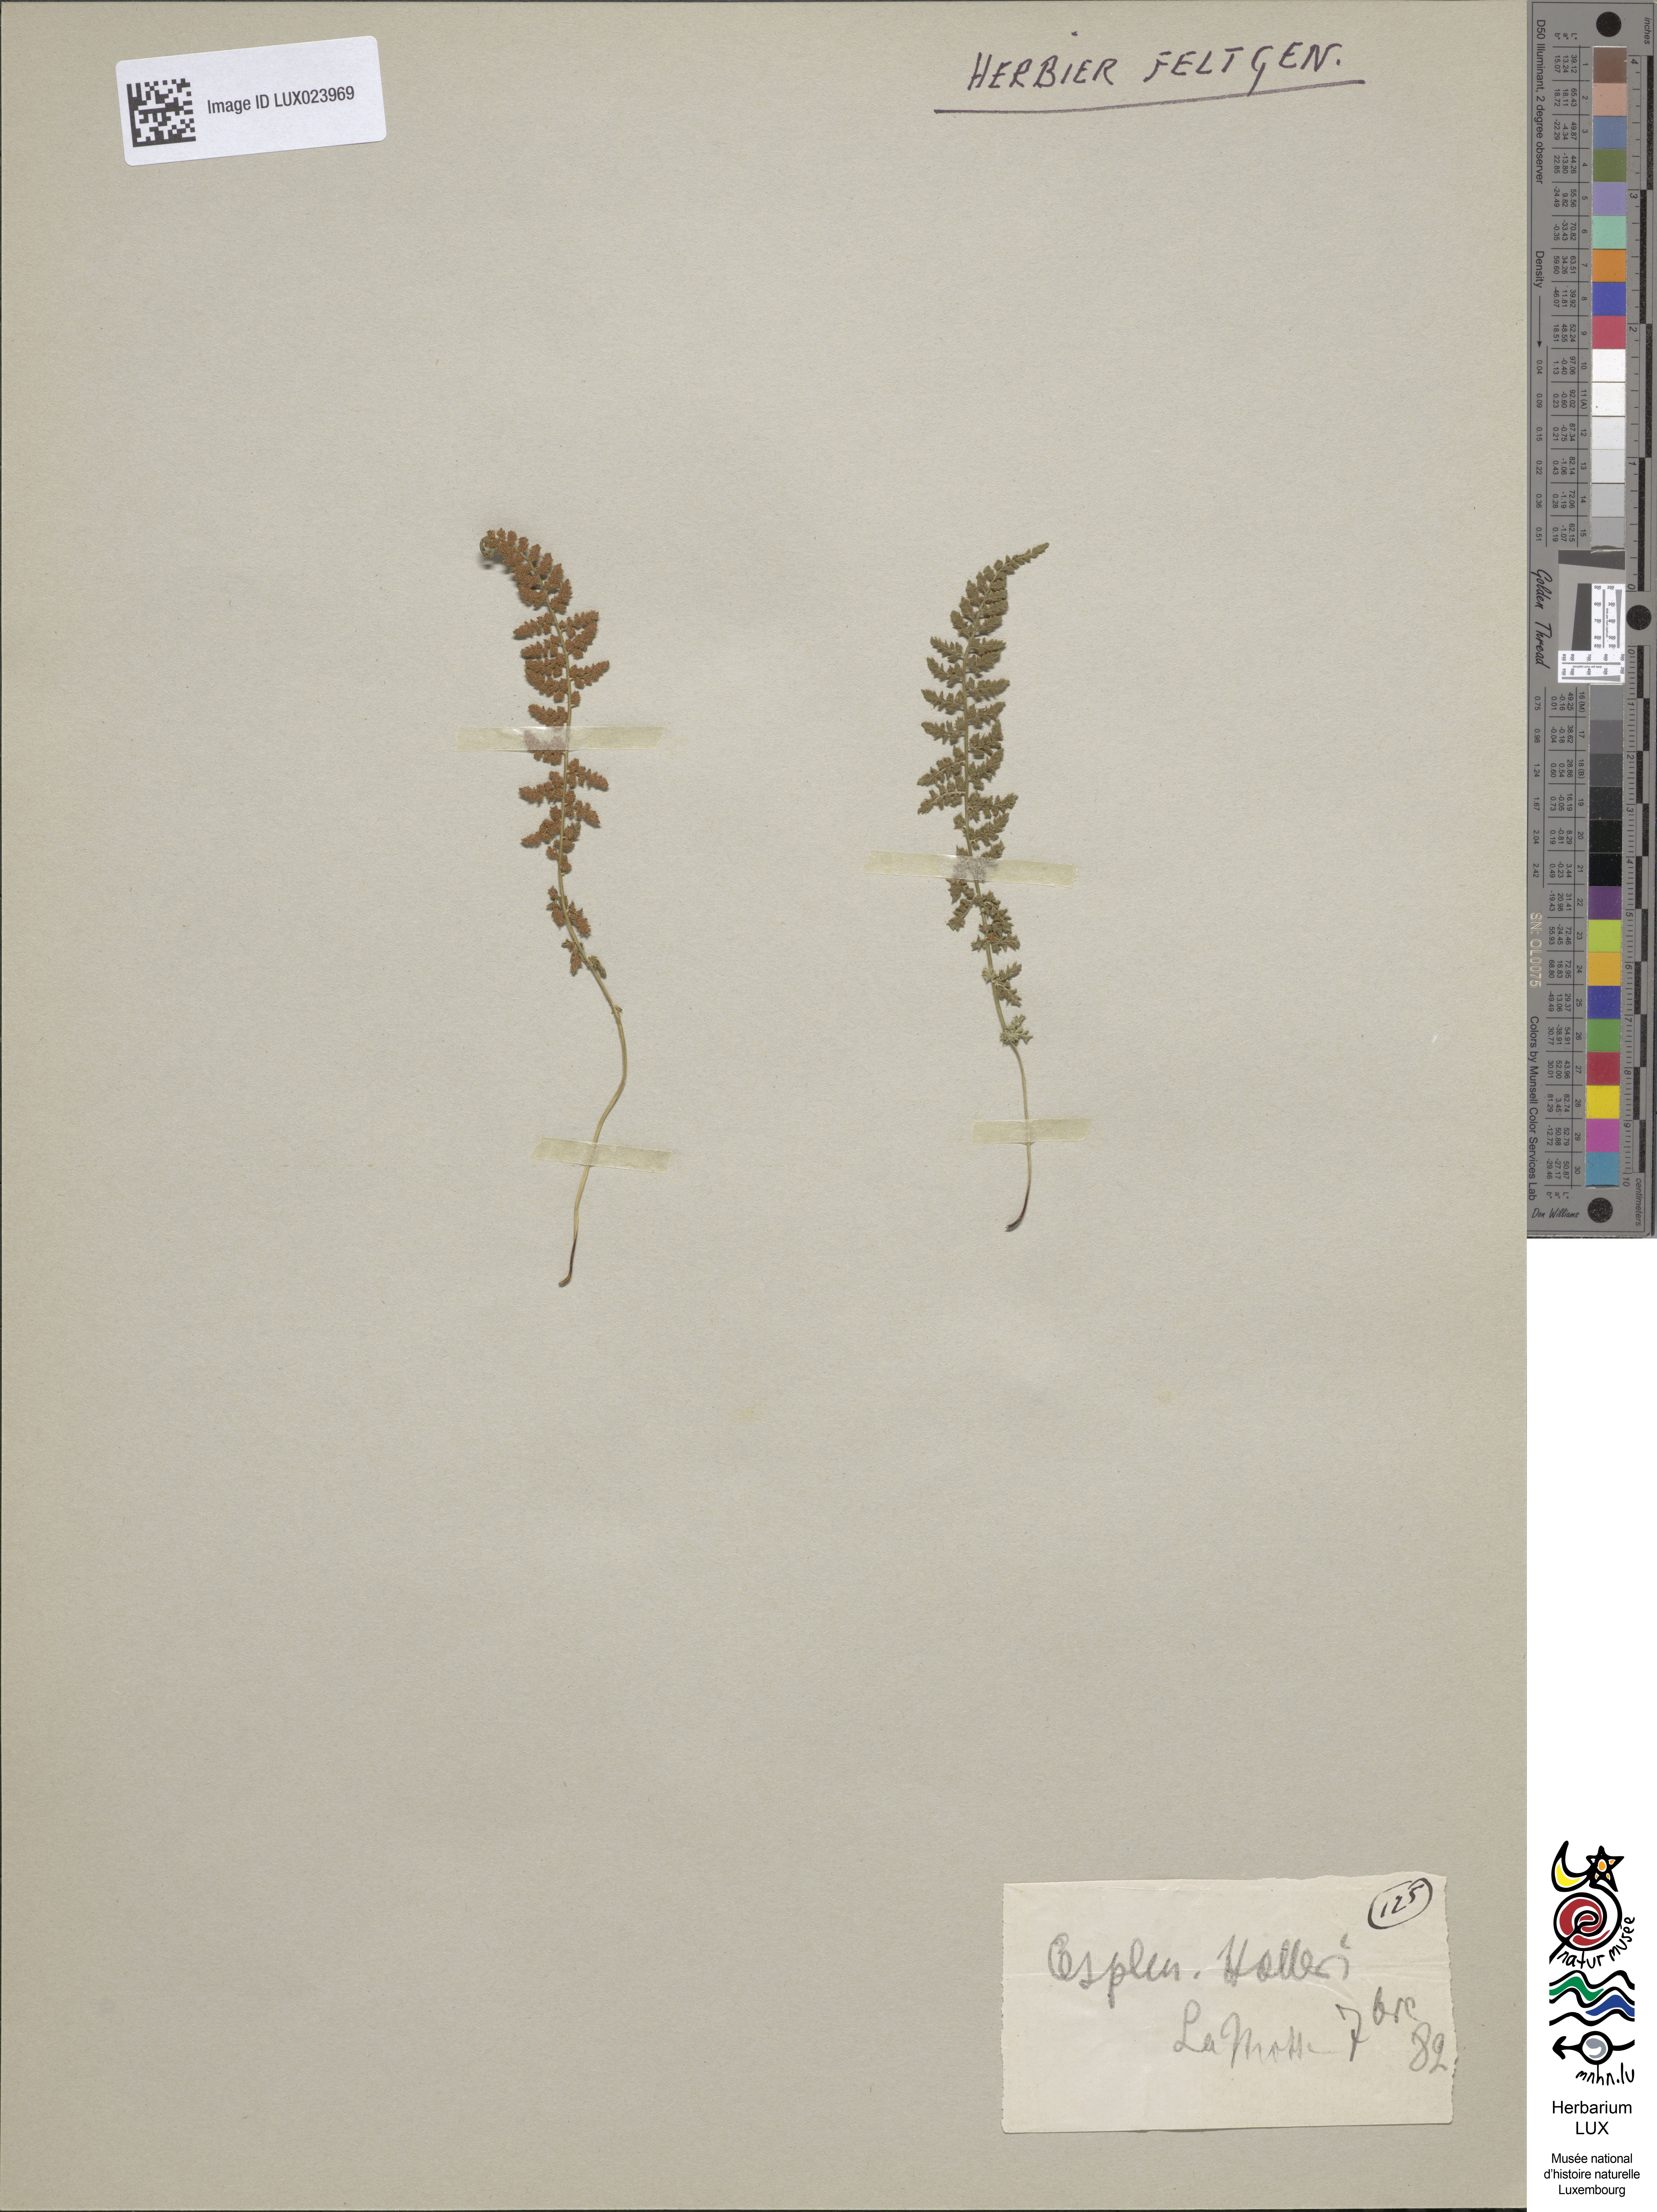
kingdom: Plantae
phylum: Tracheophyta
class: Polypodiopsida
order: Polypodiales
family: Aspleniaceae
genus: Asplenium
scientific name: Asplenium fontanum
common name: Fountain spleenwort
